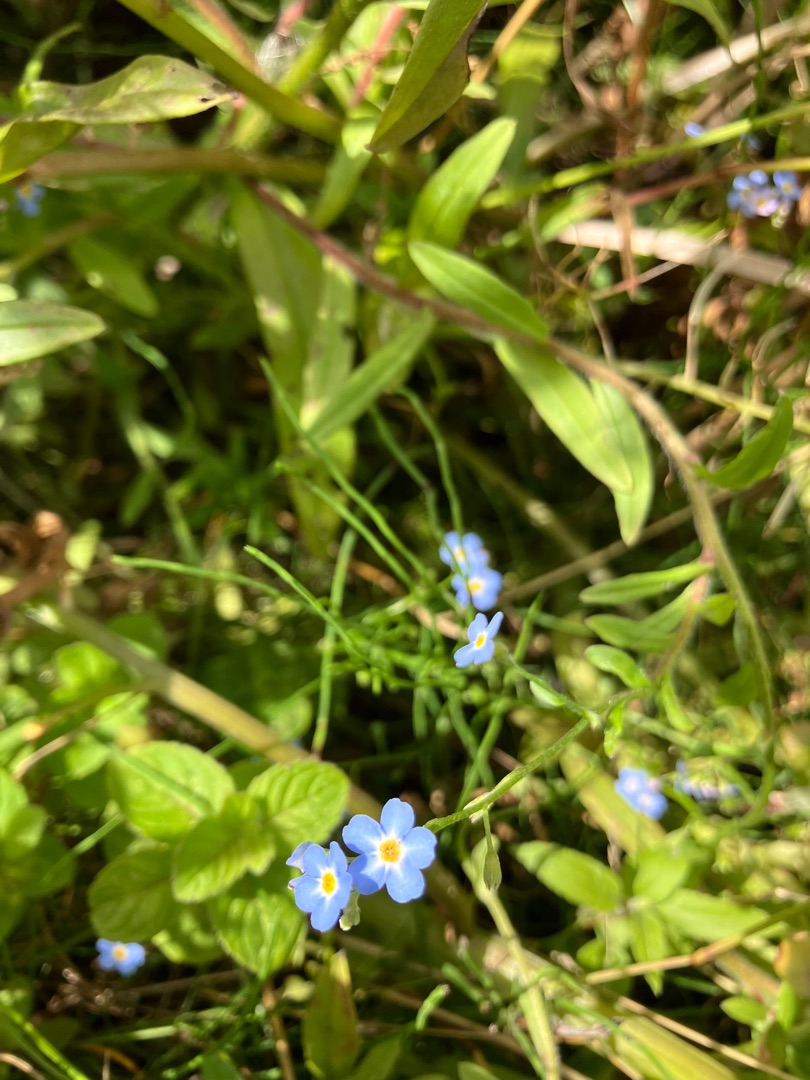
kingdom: Plantae
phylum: Tracheophyta
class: Magnoliopsida
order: Boraginales
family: Boraginaceae
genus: Myosotis
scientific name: Myosotis scorpioides
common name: Eng-forglemmigej
